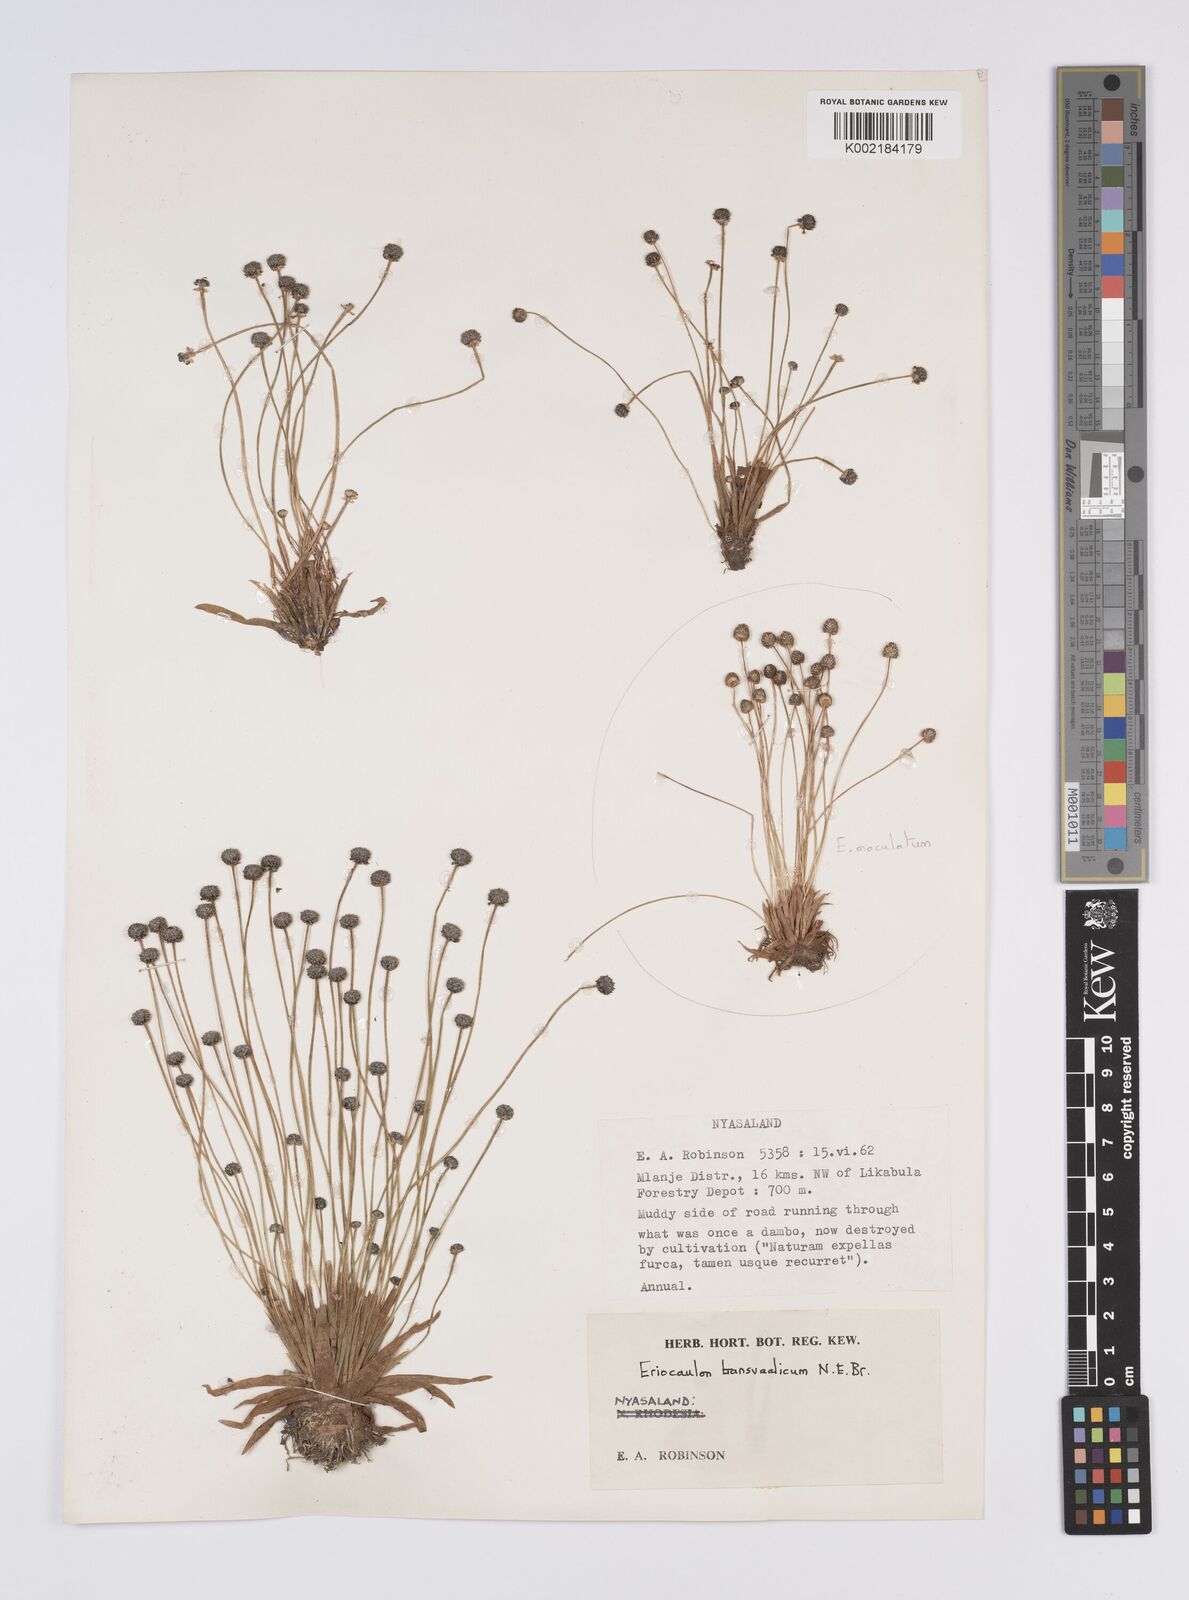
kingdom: Plantae
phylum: Tracheophyta
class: Liliopsida
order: Poales
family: Eriocaulaceae
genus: Eriocaulon
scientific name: Eriocaulon transvaalicum
